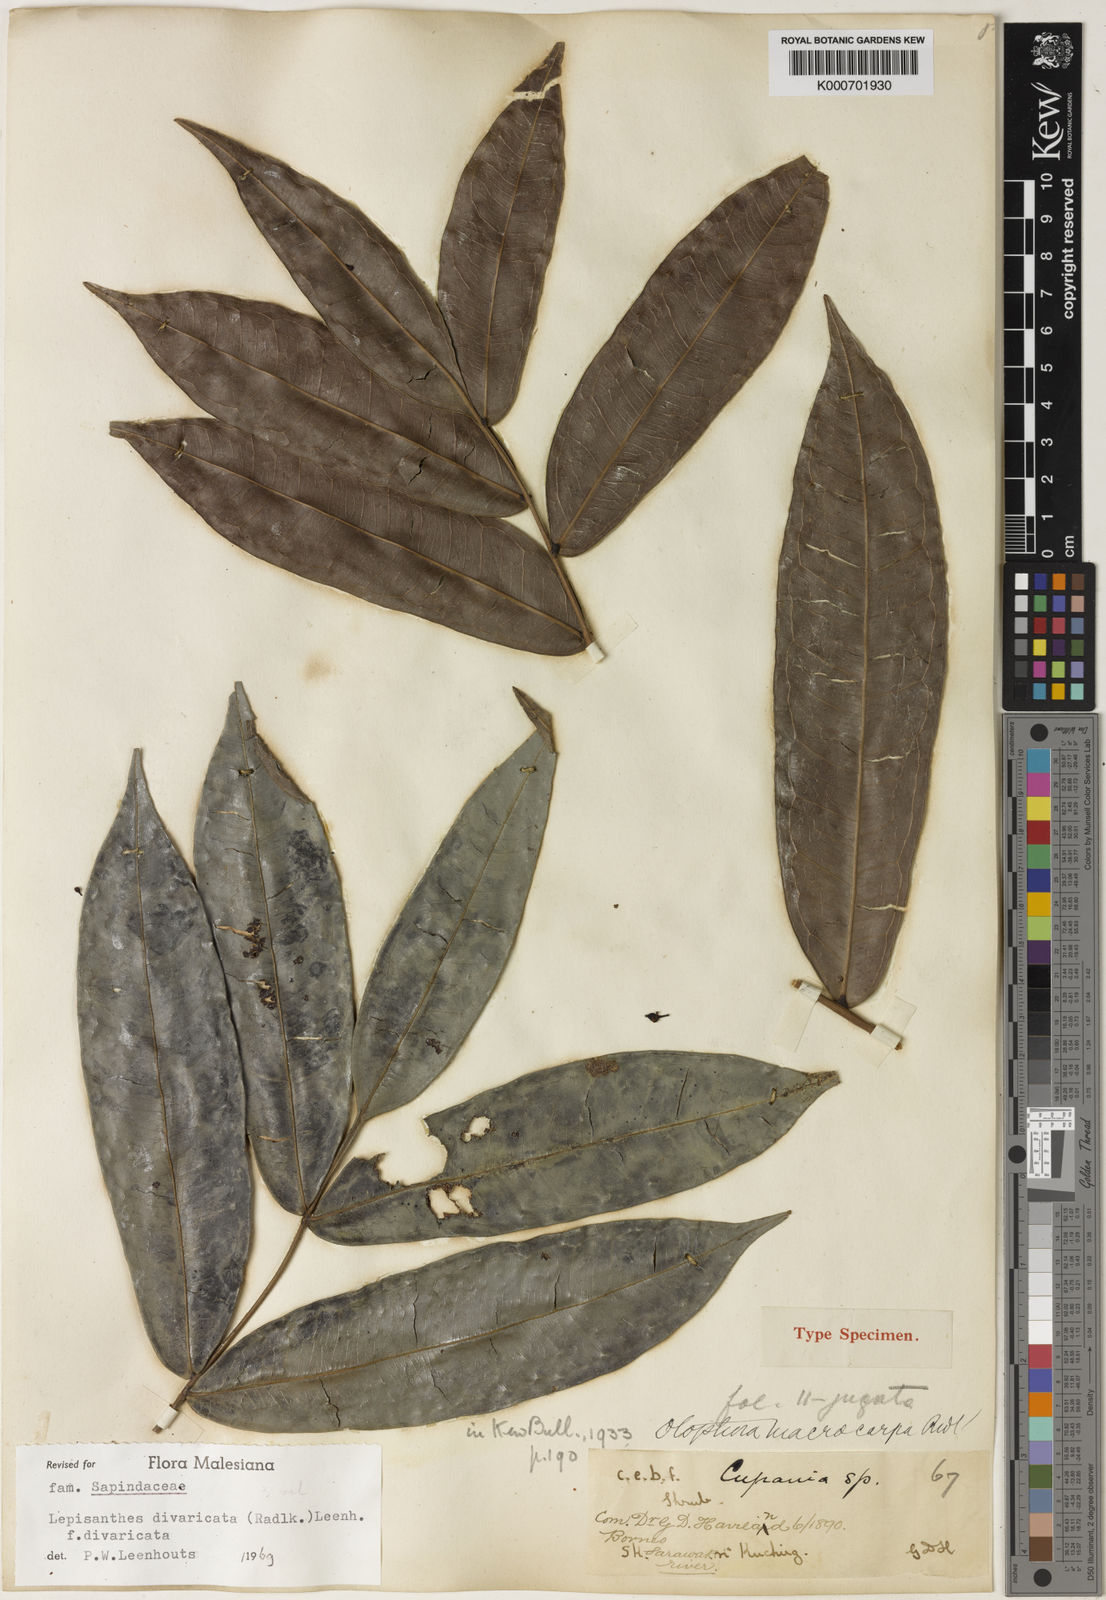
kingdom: Plantae
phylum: Tracheophyta
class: Magnoliopsida
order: Sapindales
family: Sapindaceae
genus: Lepisanthes
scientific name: Lepisanthes divaricata
